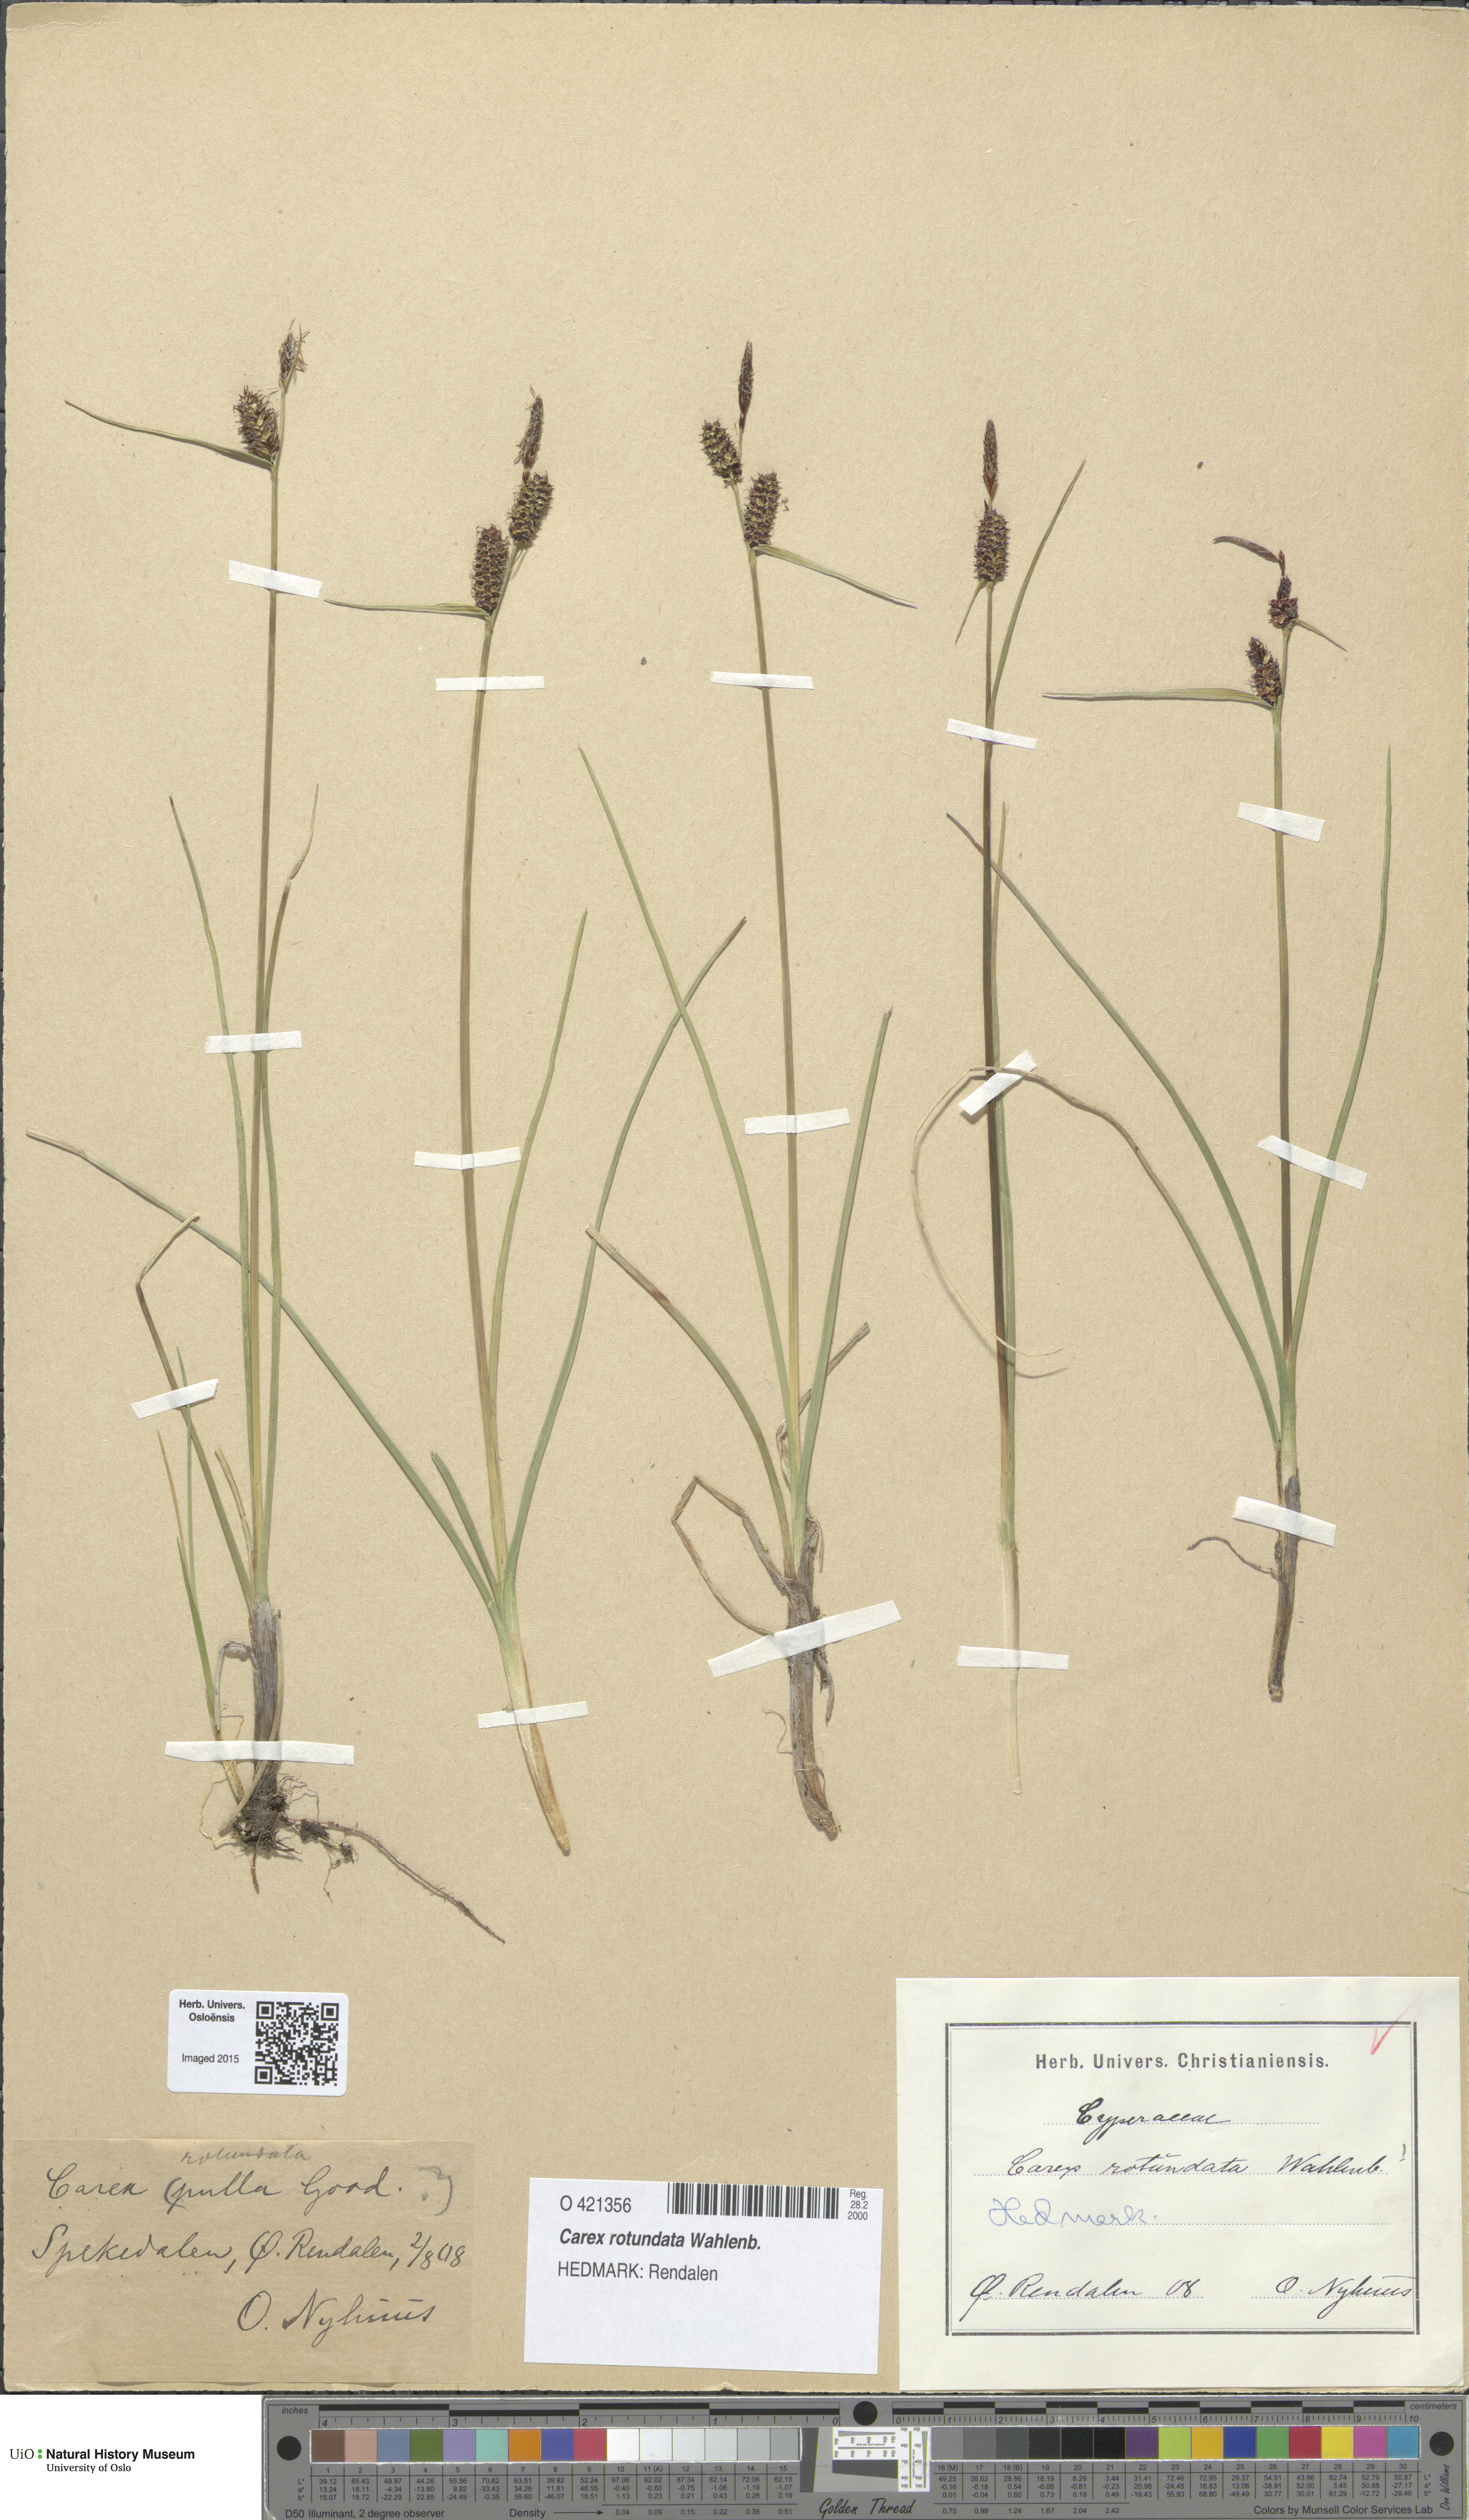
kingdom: Plantae
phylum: Tracheophyta
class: Liliopsida
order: Poales
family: Cyperaceae
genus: Carex
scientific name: Carex rotundata
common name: Round-fruited sedge
